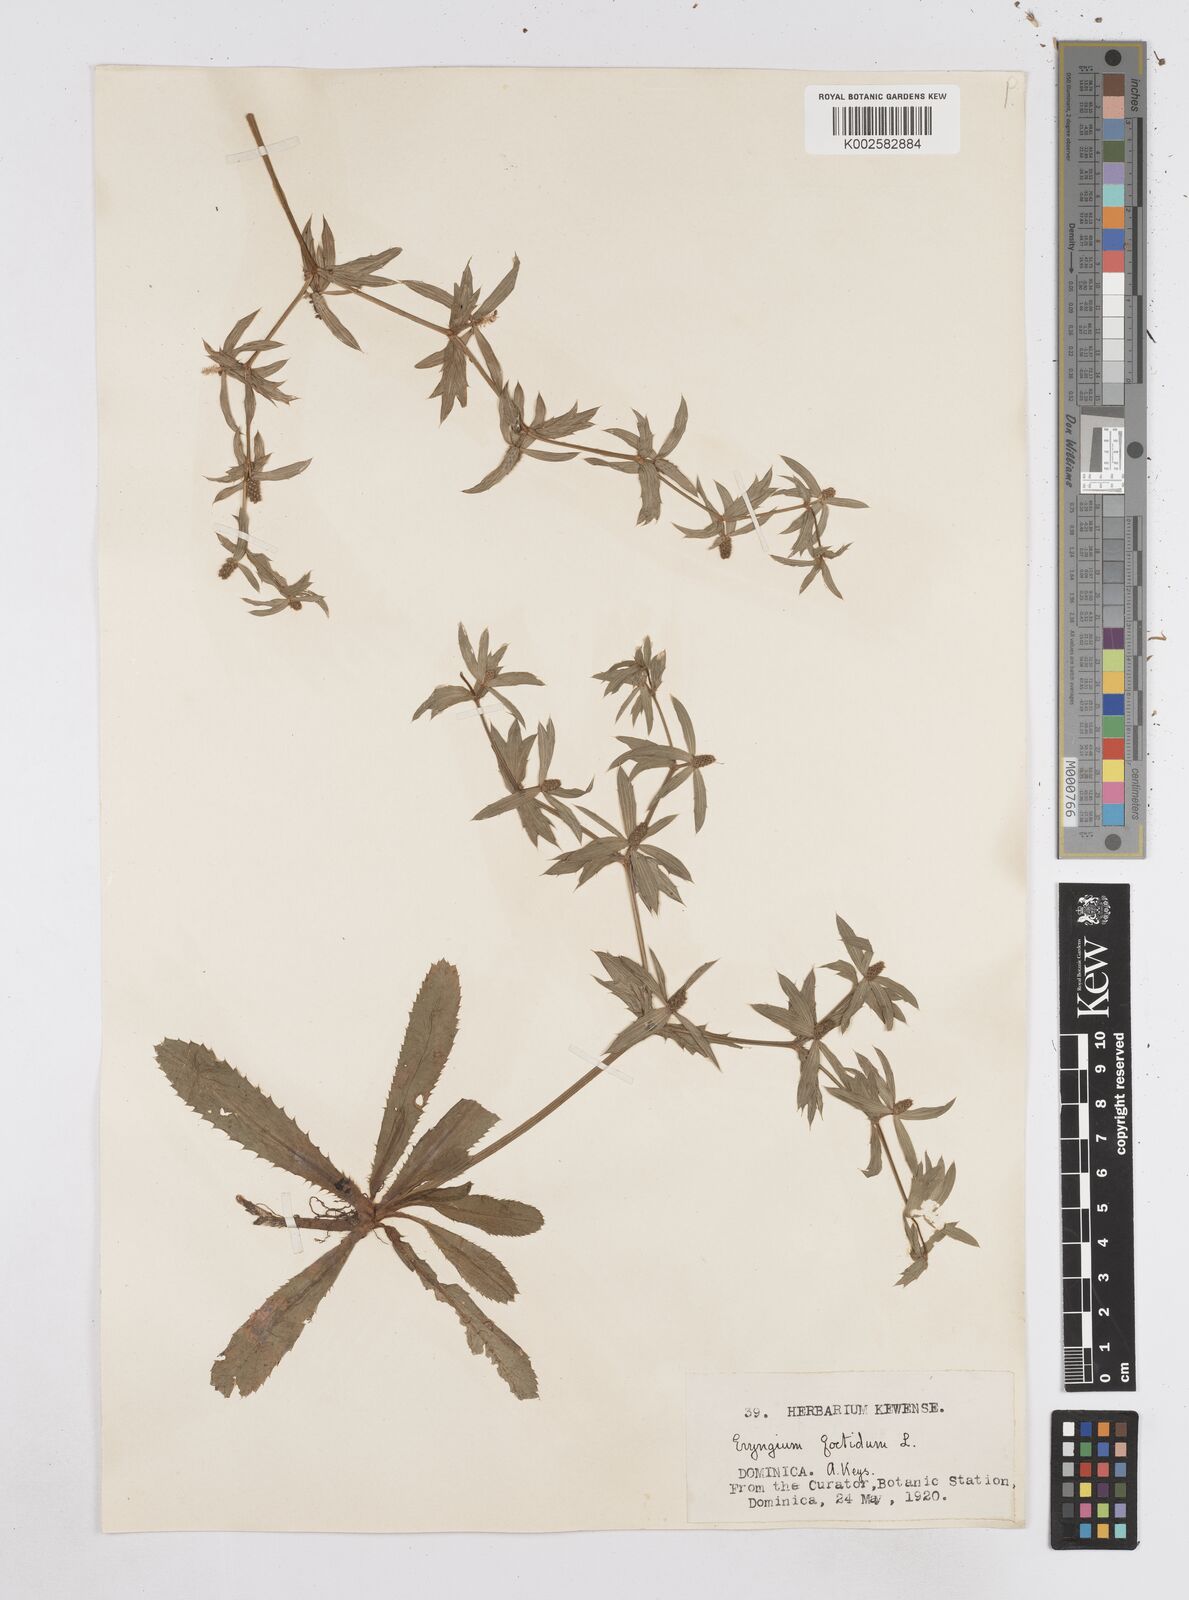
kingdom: Plantae
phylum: Tracheophyta
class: Magnoliopsida
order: Apiales
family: Apiaceae
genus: Eryngium
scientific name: Eryngium foetidum
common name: Fitweed
